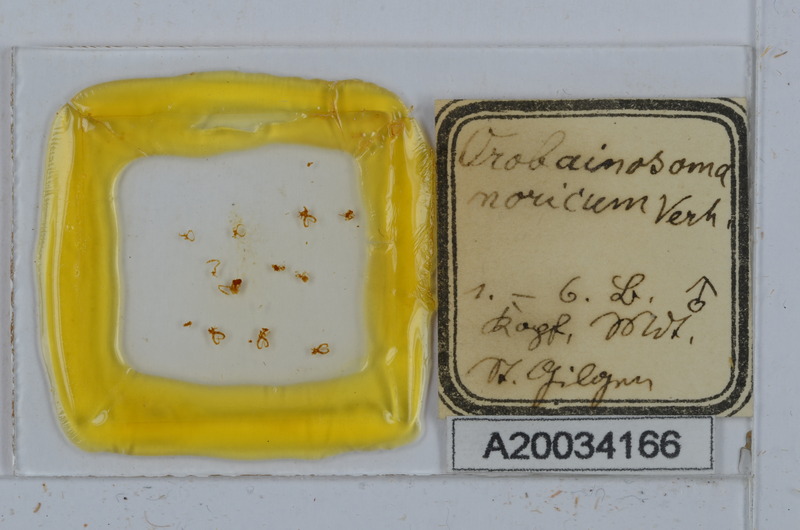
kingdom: Animalia
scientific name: Animalia
